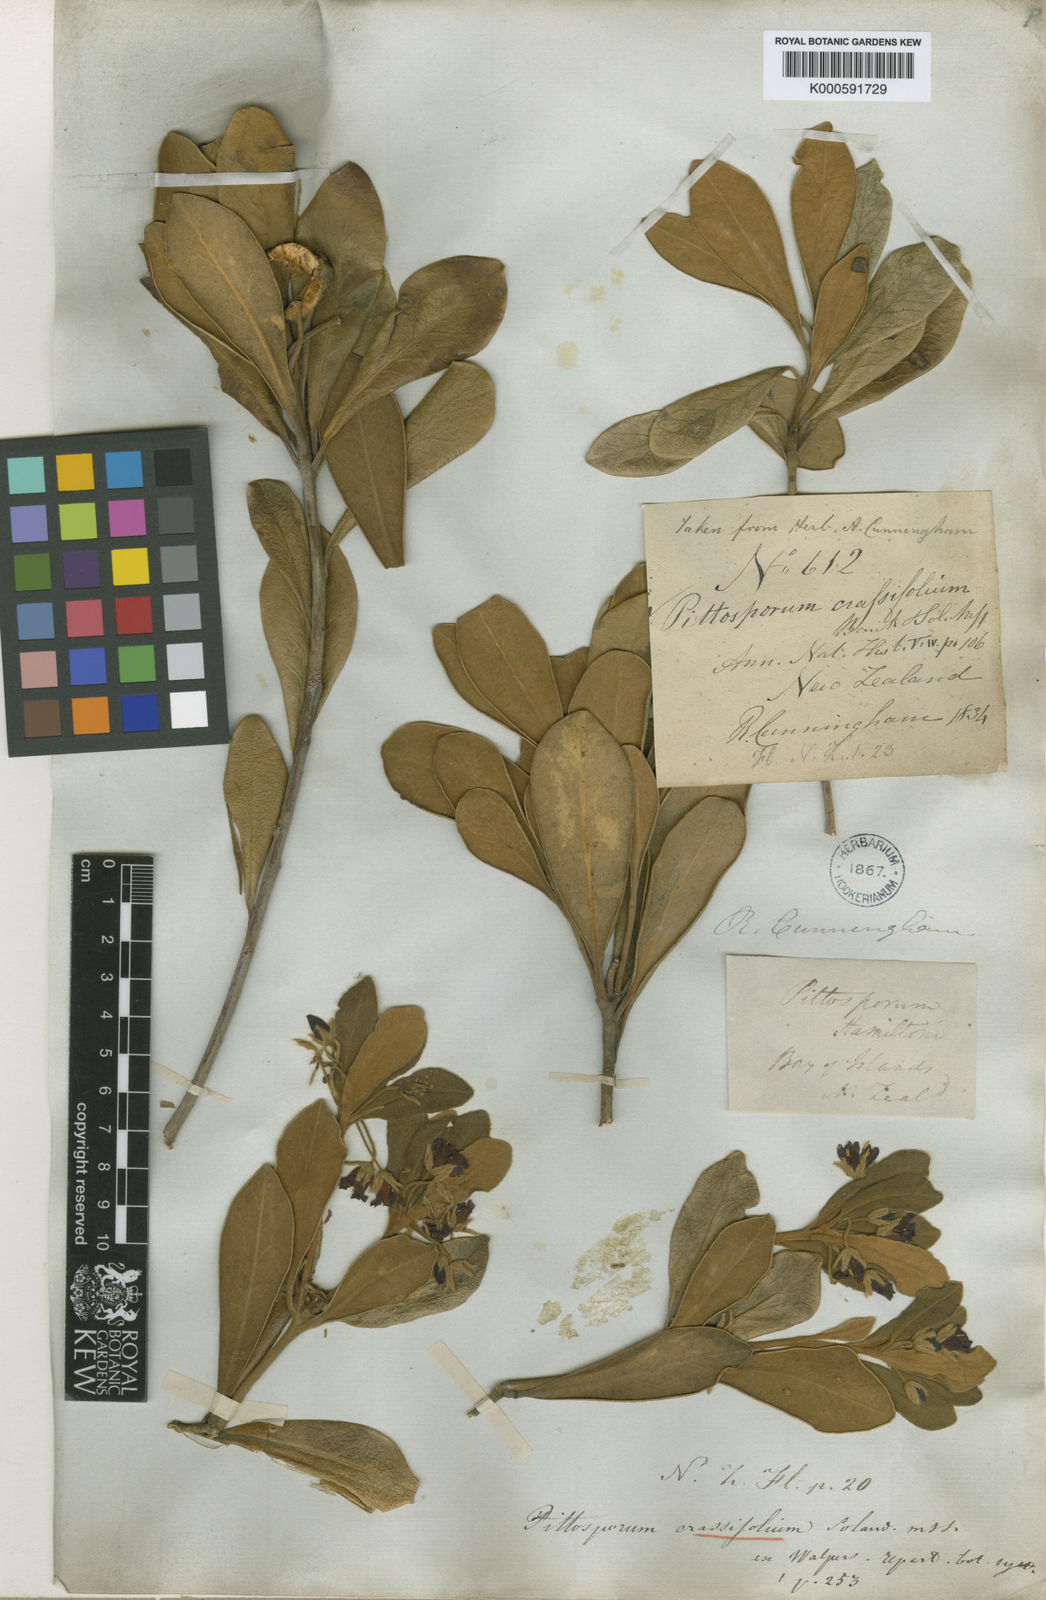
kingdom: Plantae
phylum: Tracheophyta
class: Magnoliopsida
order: Apiales
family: Pittosporaceae
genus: Pittosporum
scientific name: Pittosporum
